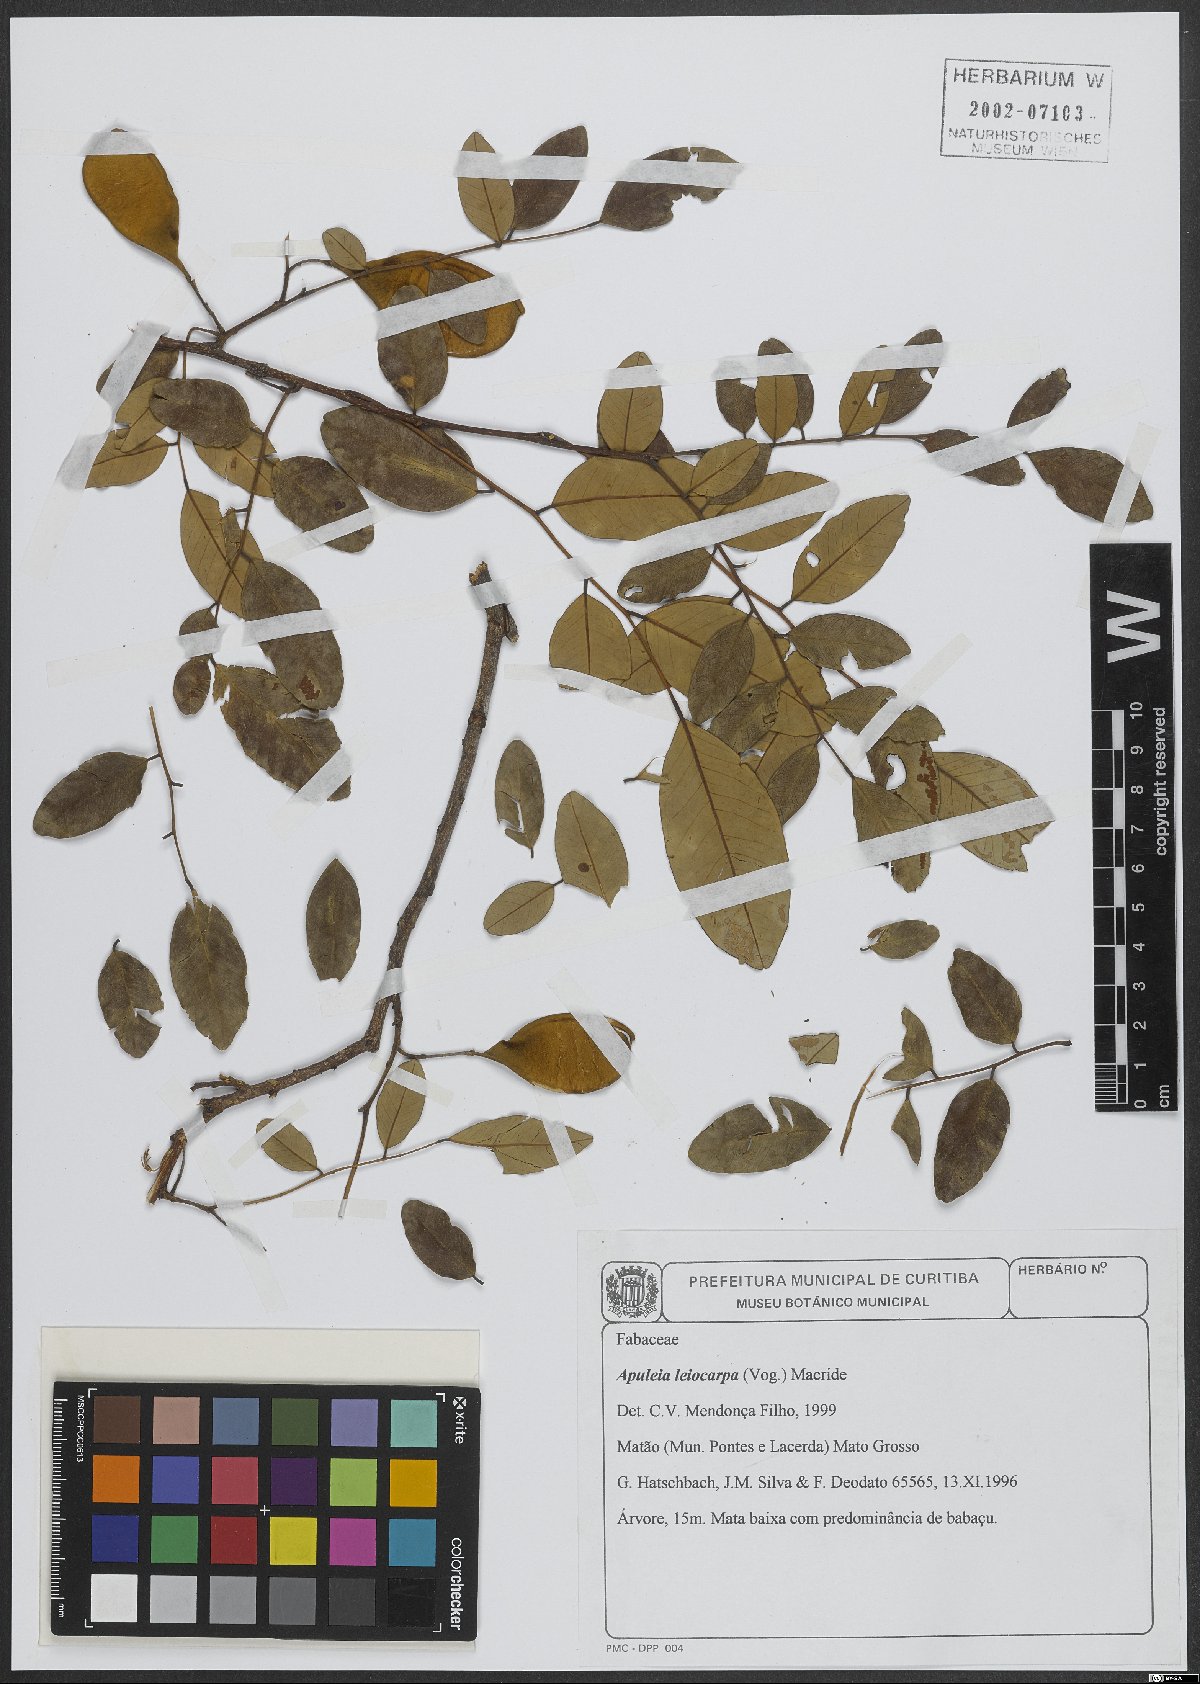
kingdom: Plantae
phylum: Tracheophyta
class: Magnoliopsida
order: Fabales
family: Fabaceae
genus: Apuleia
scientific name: Apuleia leiocarpa
